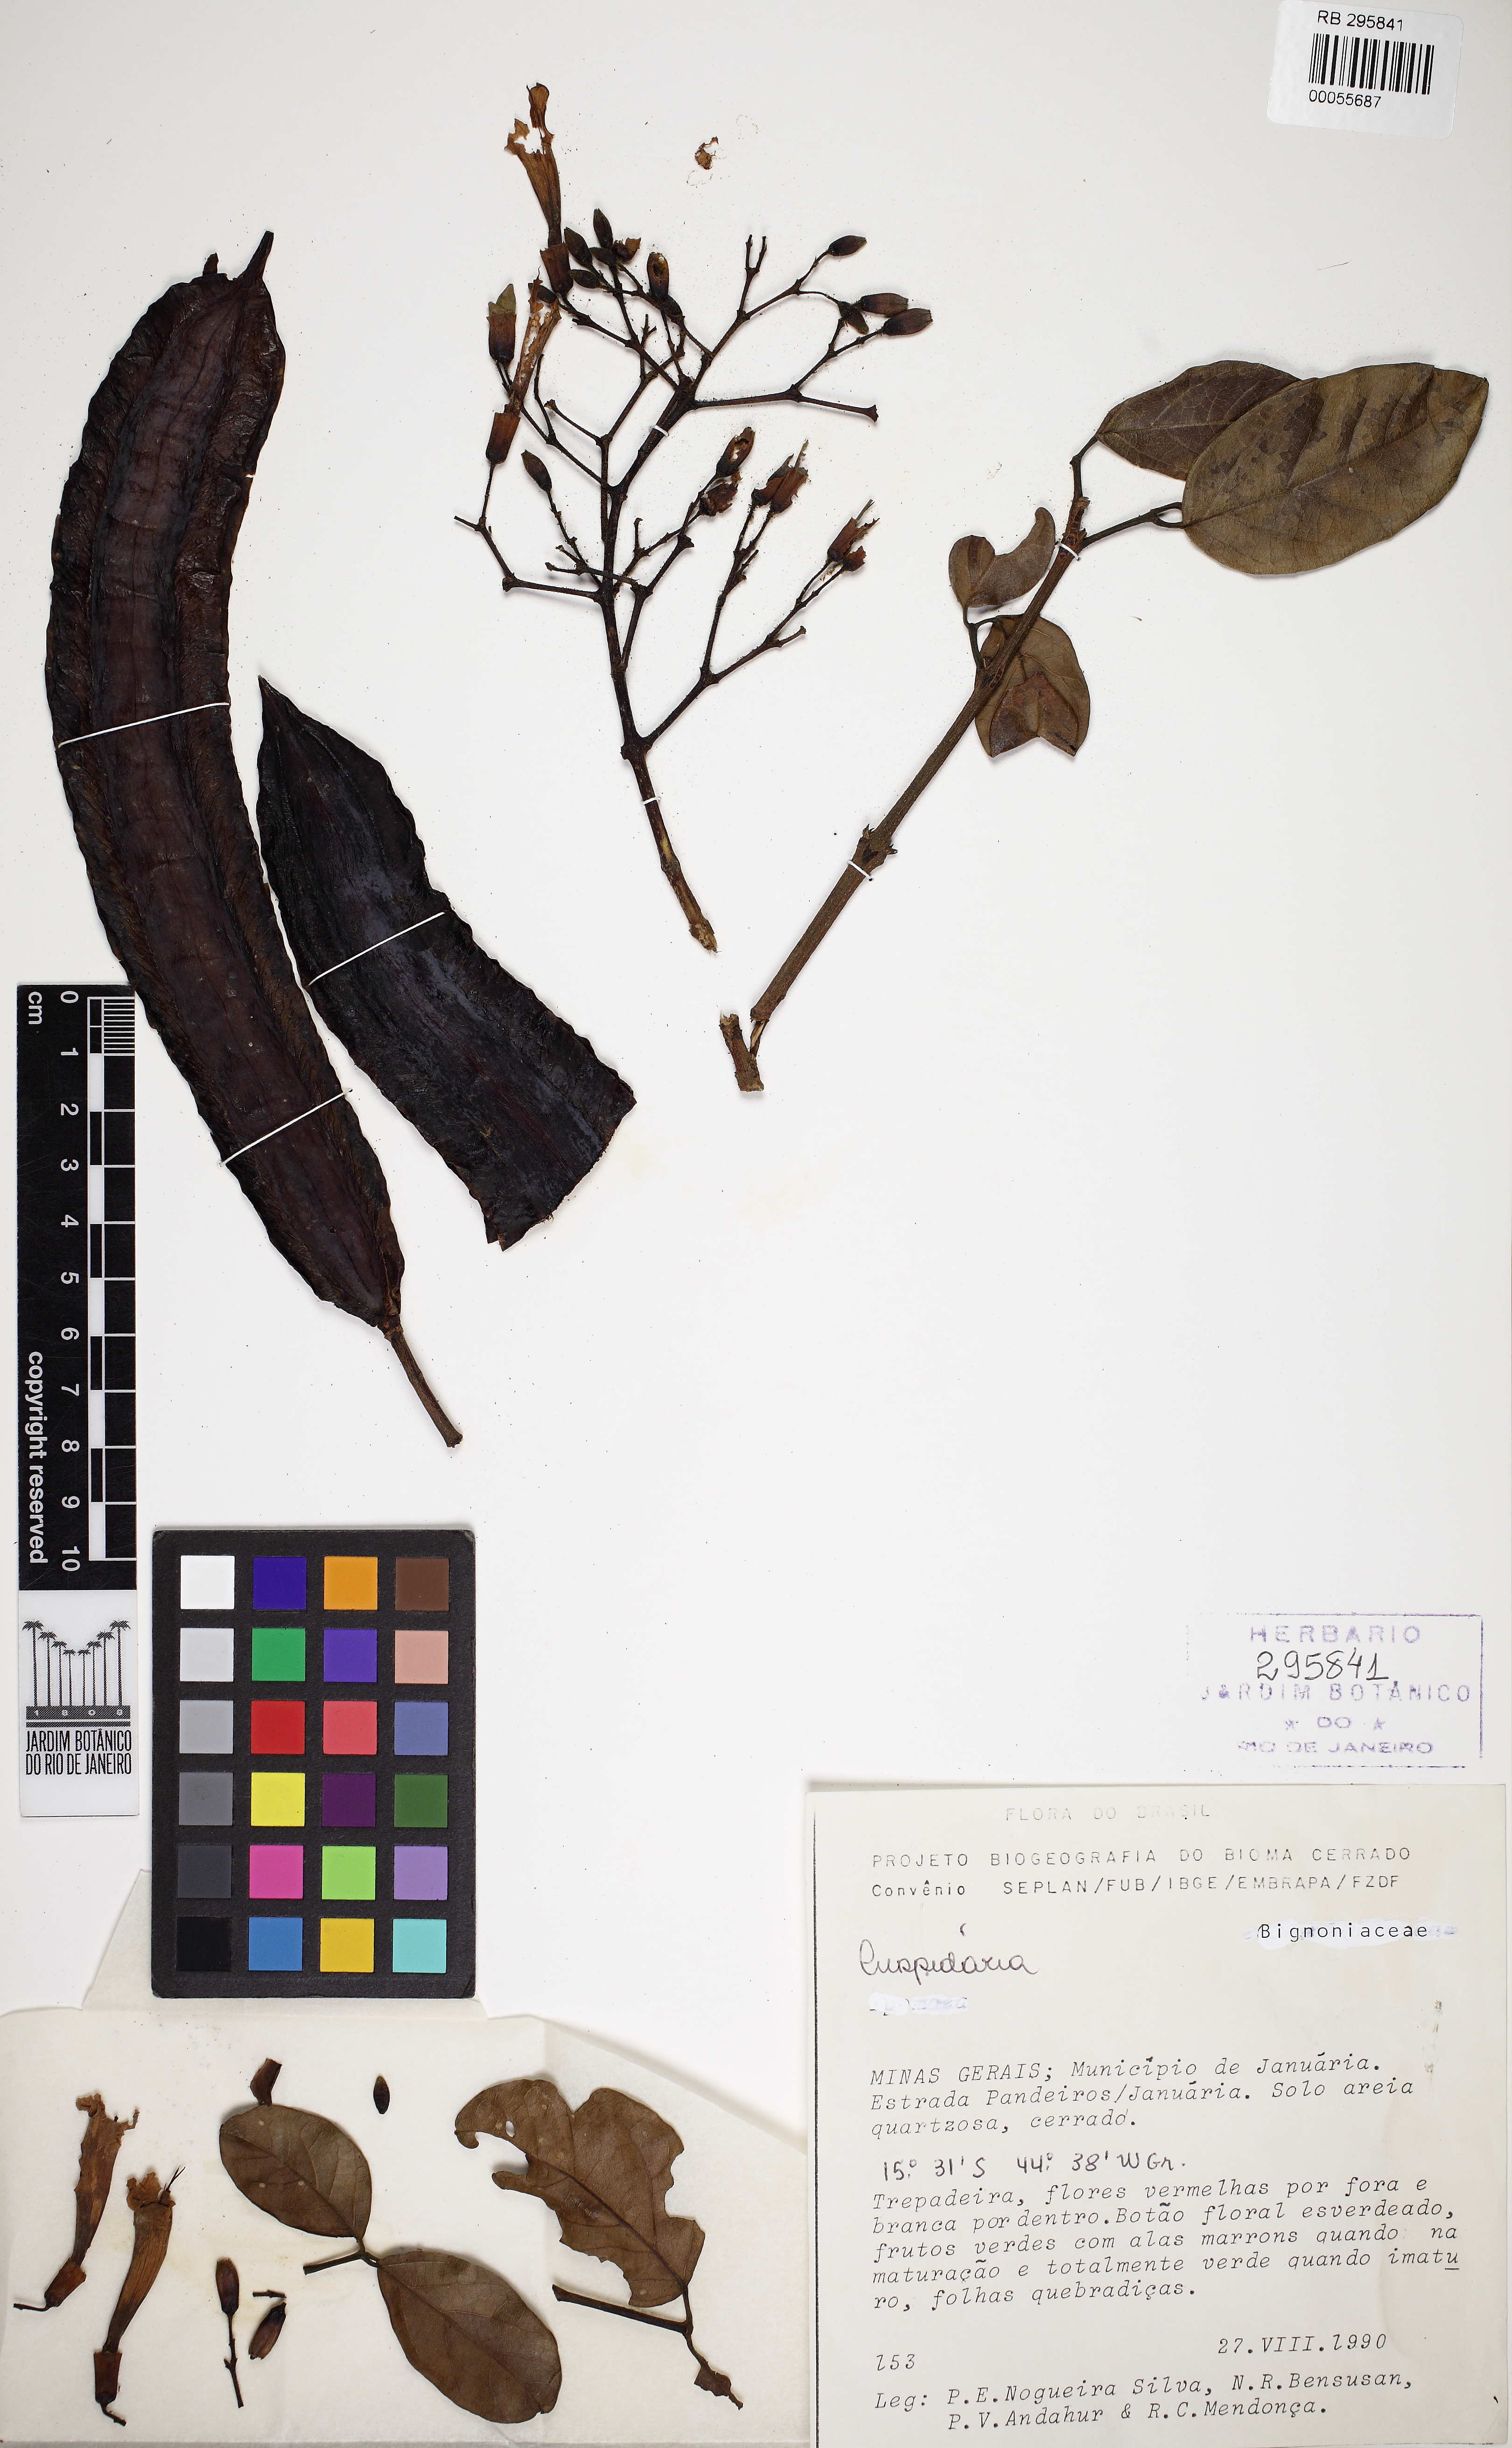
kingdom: Plantae
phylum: Tracheophyta
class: Magnoliopsida
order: Lamiales
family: Bignoniaceae
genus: Fridericia
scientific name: Fridericia erubescens
